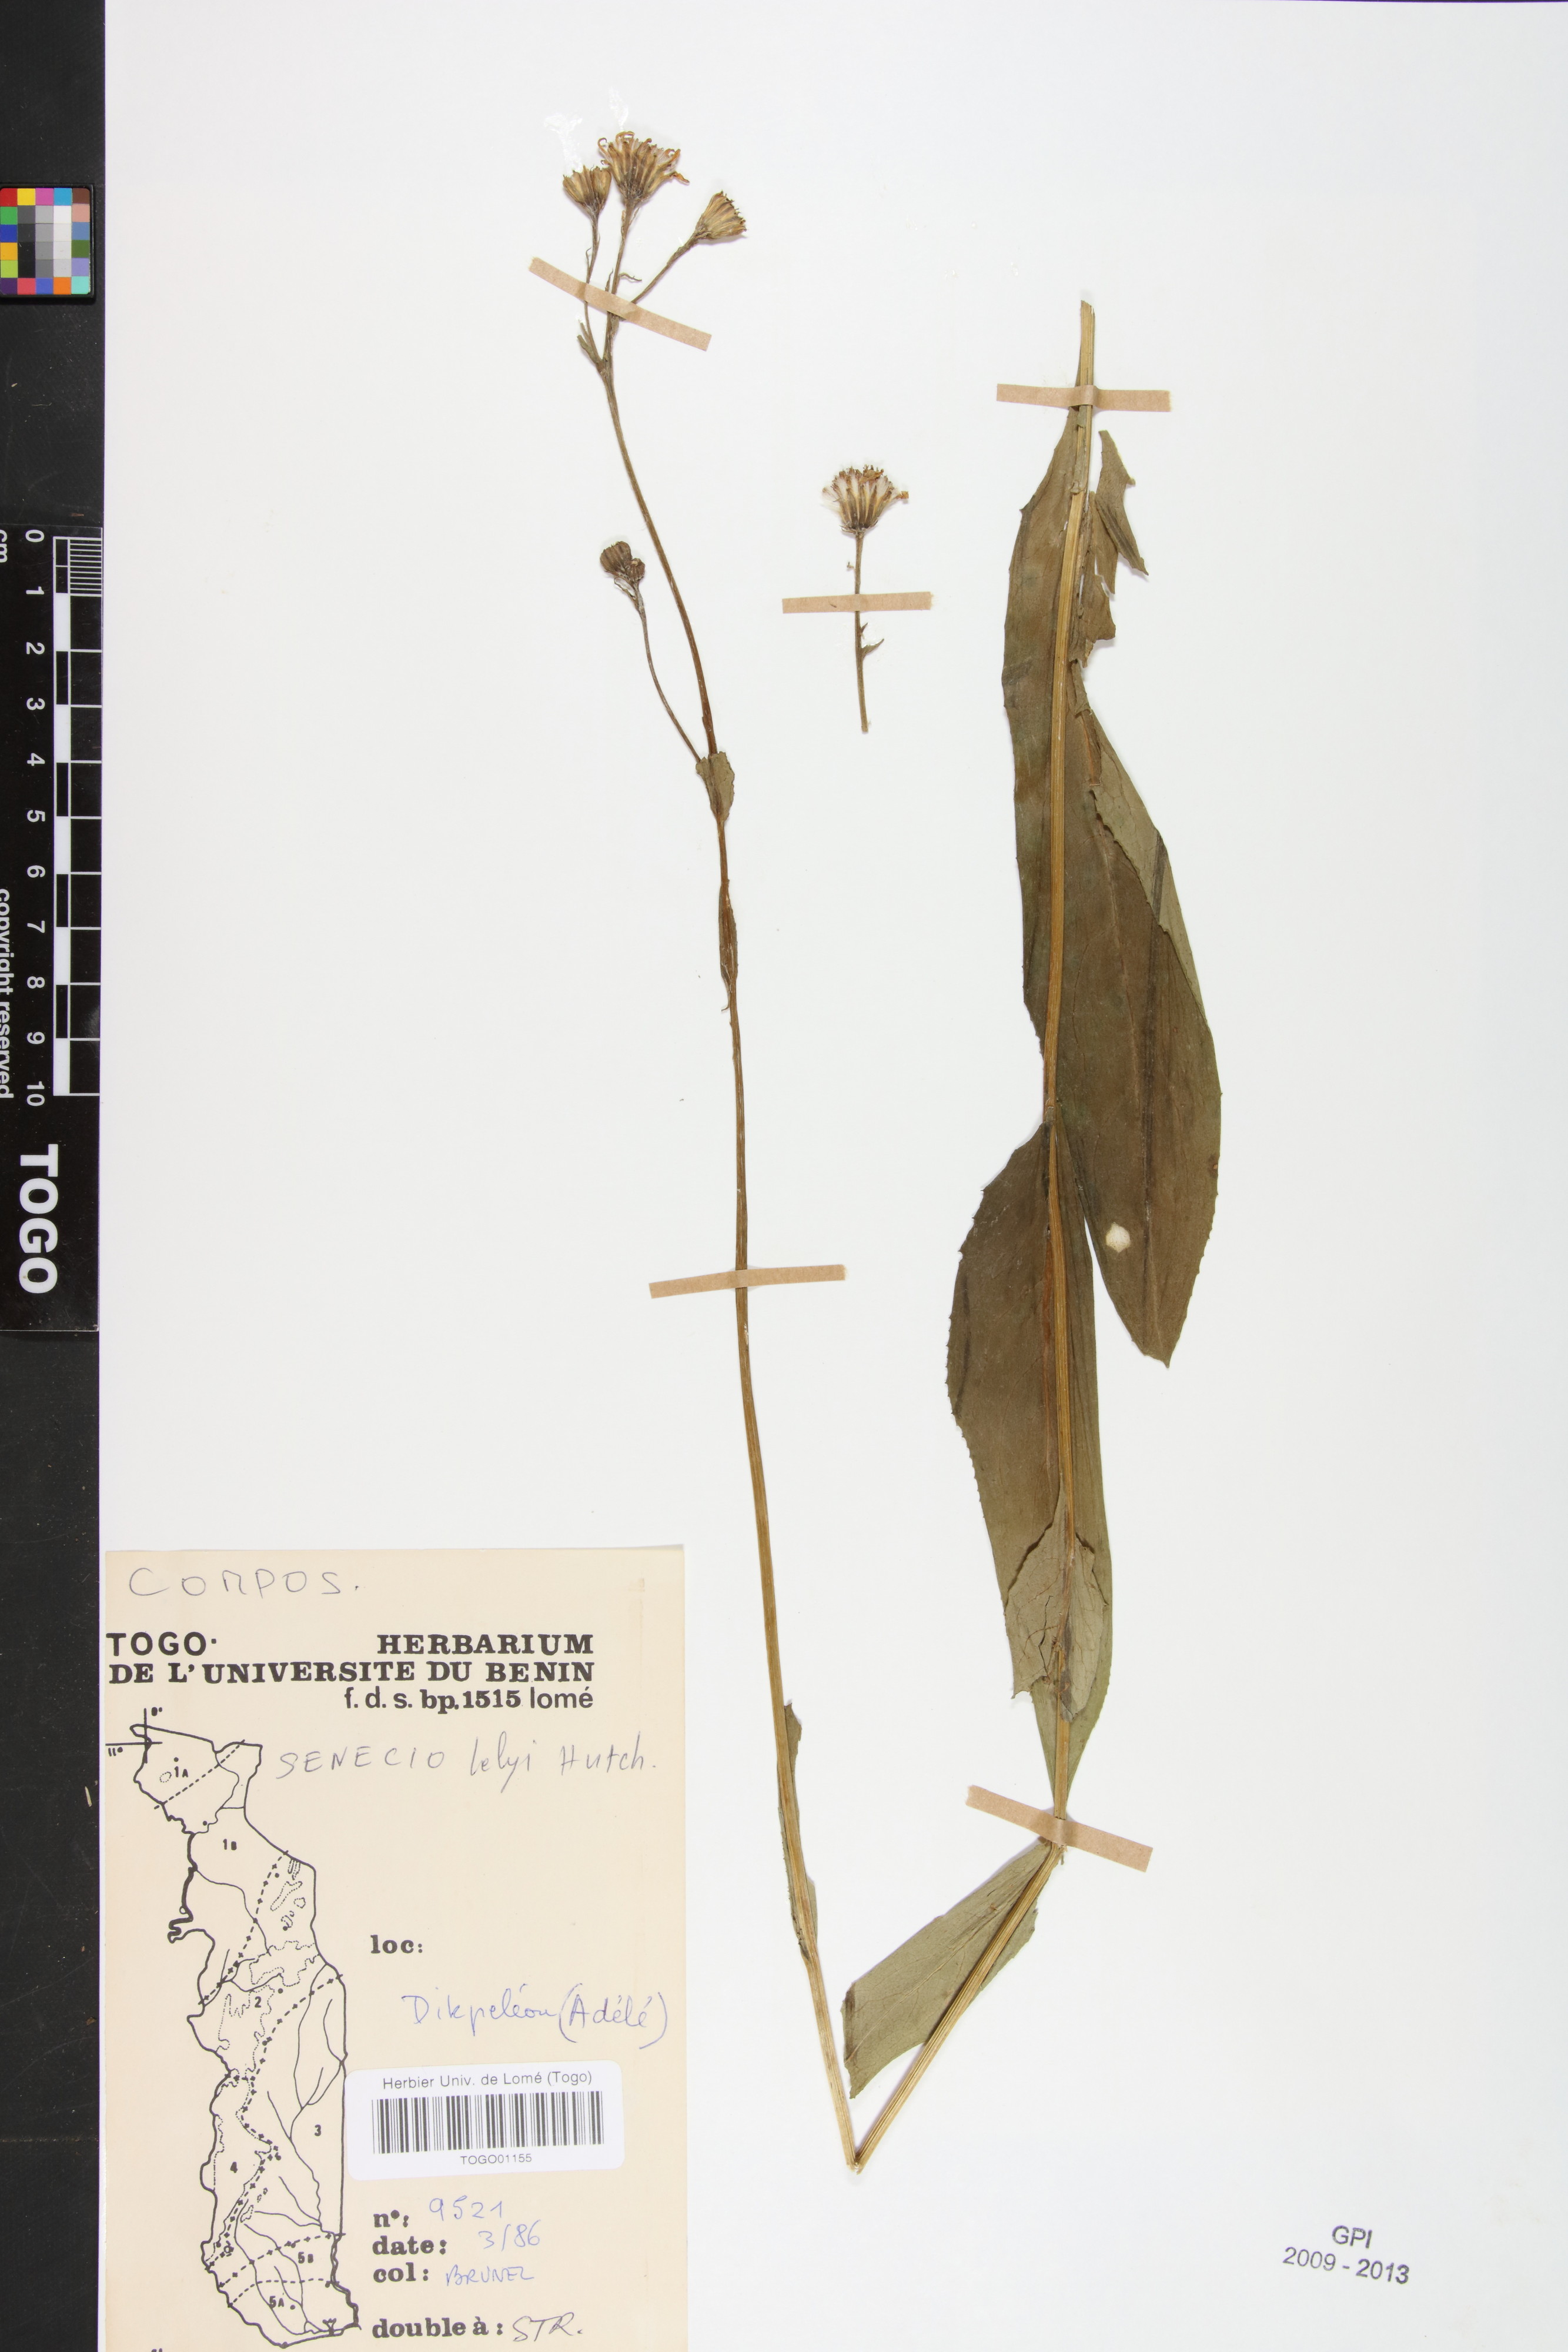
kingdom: Plantae
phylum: Tracheophyta
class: Magnoliopsida
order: Asterales
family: Asteraceae
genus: Senecio
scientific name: Senecio lelyi
